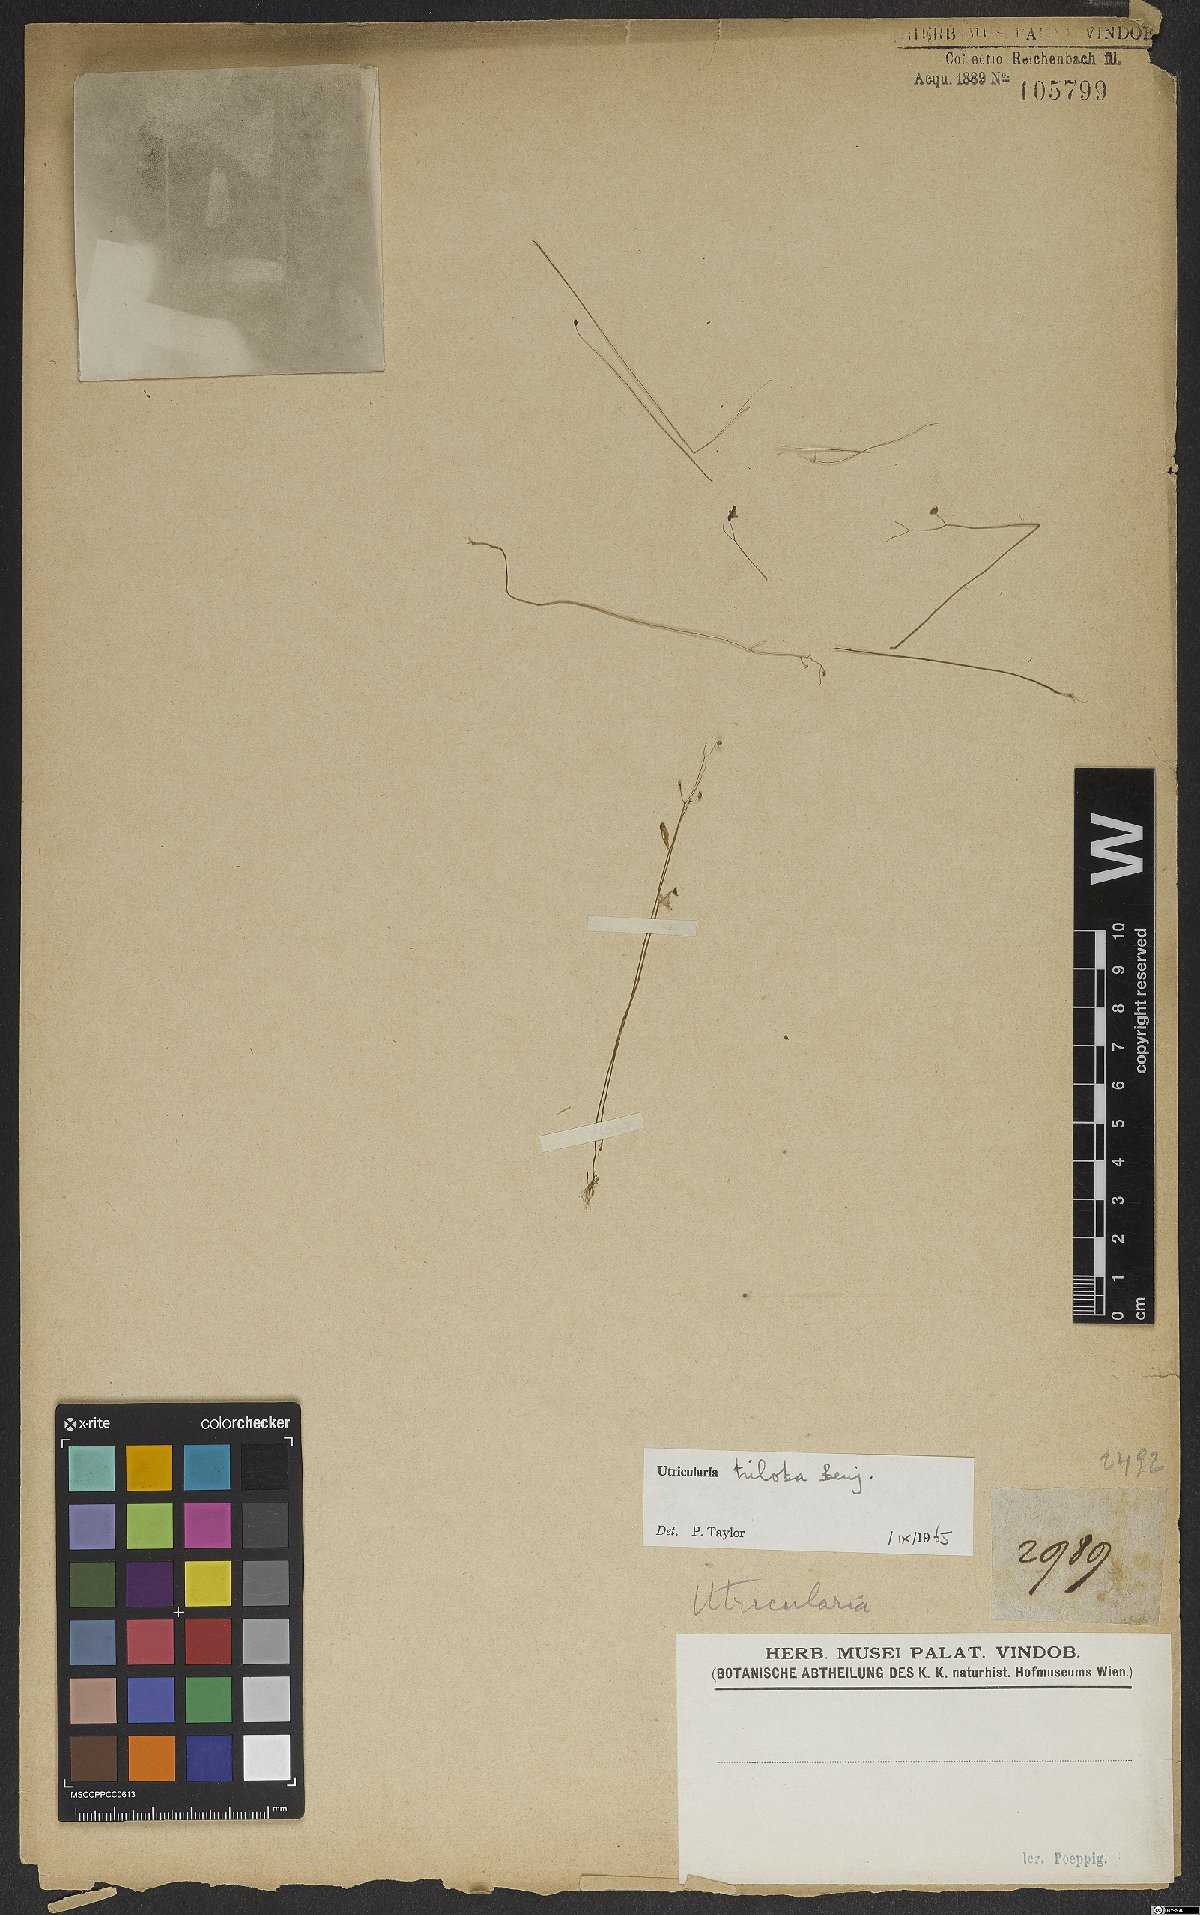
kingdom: Plantae
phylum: Tracheophyta
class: Magnoliopsida
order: Lamiales
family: Lentibulariaceae
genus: Utricularia
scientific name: Utricularia subulata
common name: Tiny bladderwort
